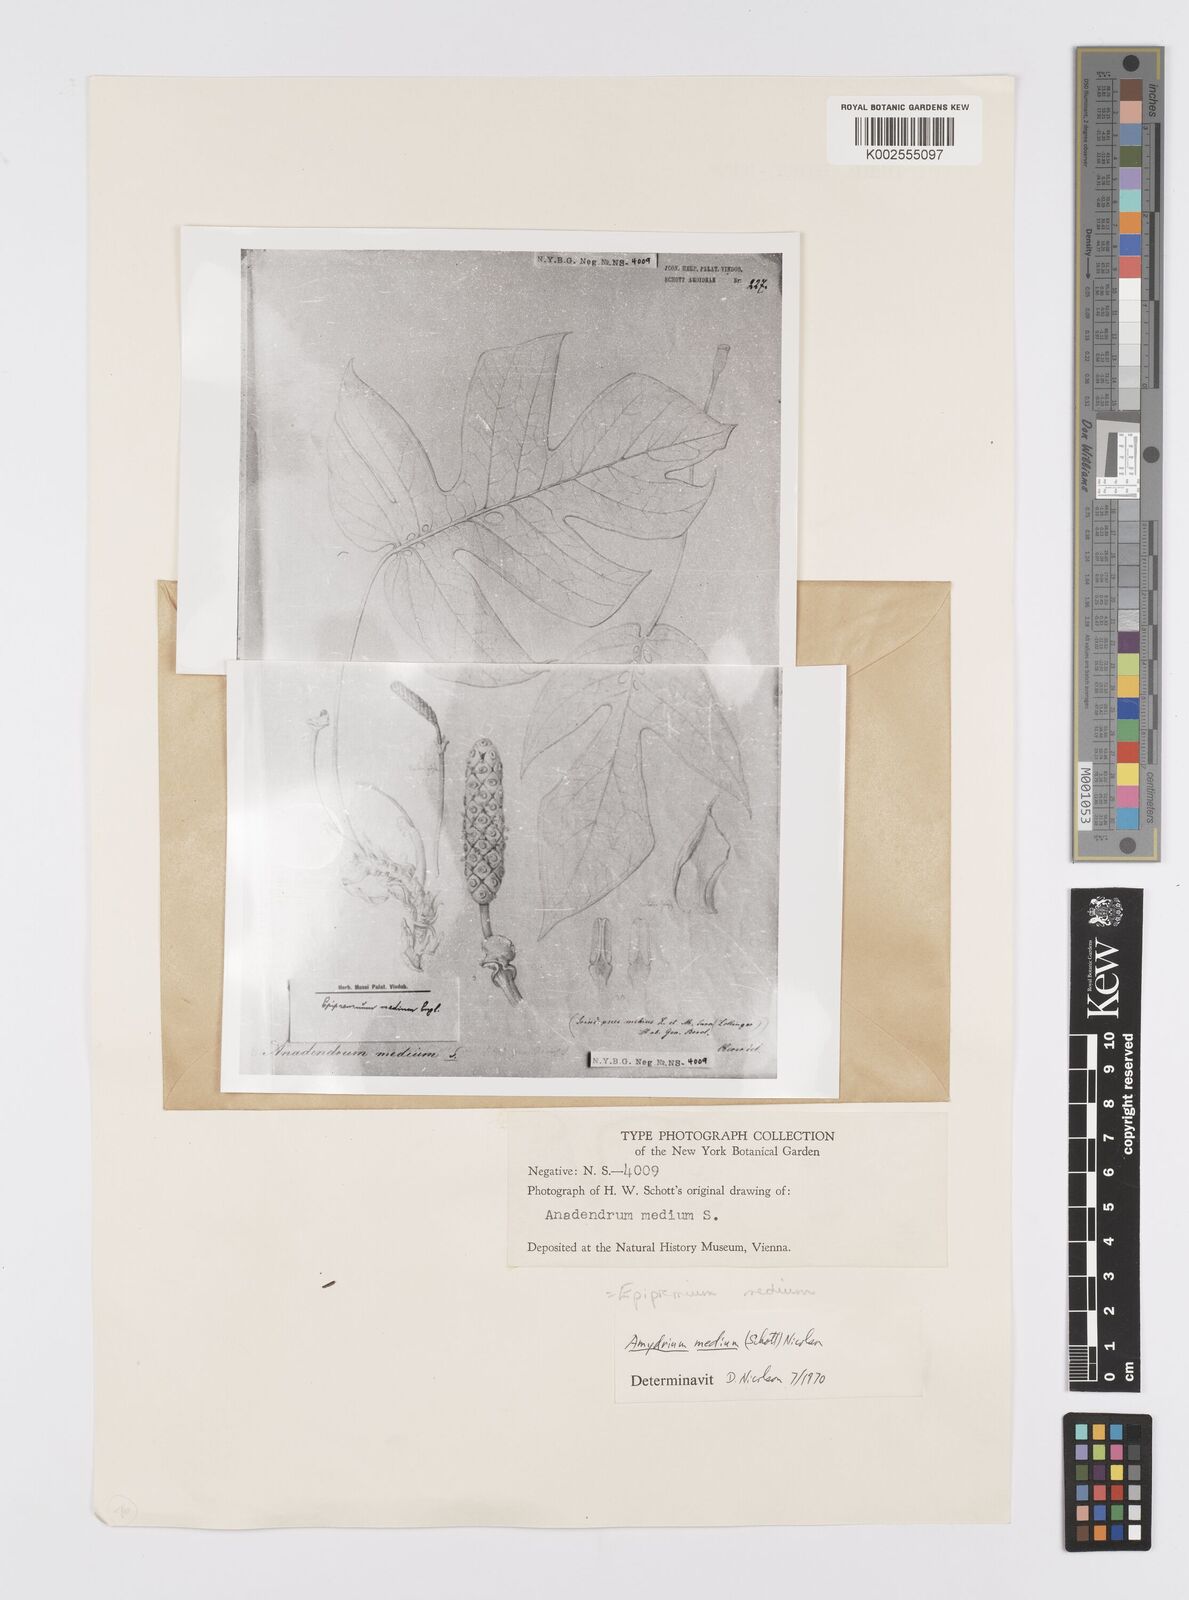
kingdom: Plantae
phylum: Tracheophyta
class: Liliopsida
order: Alismatales
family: Araceae
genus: Amydrium
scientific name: Amydrium medium
